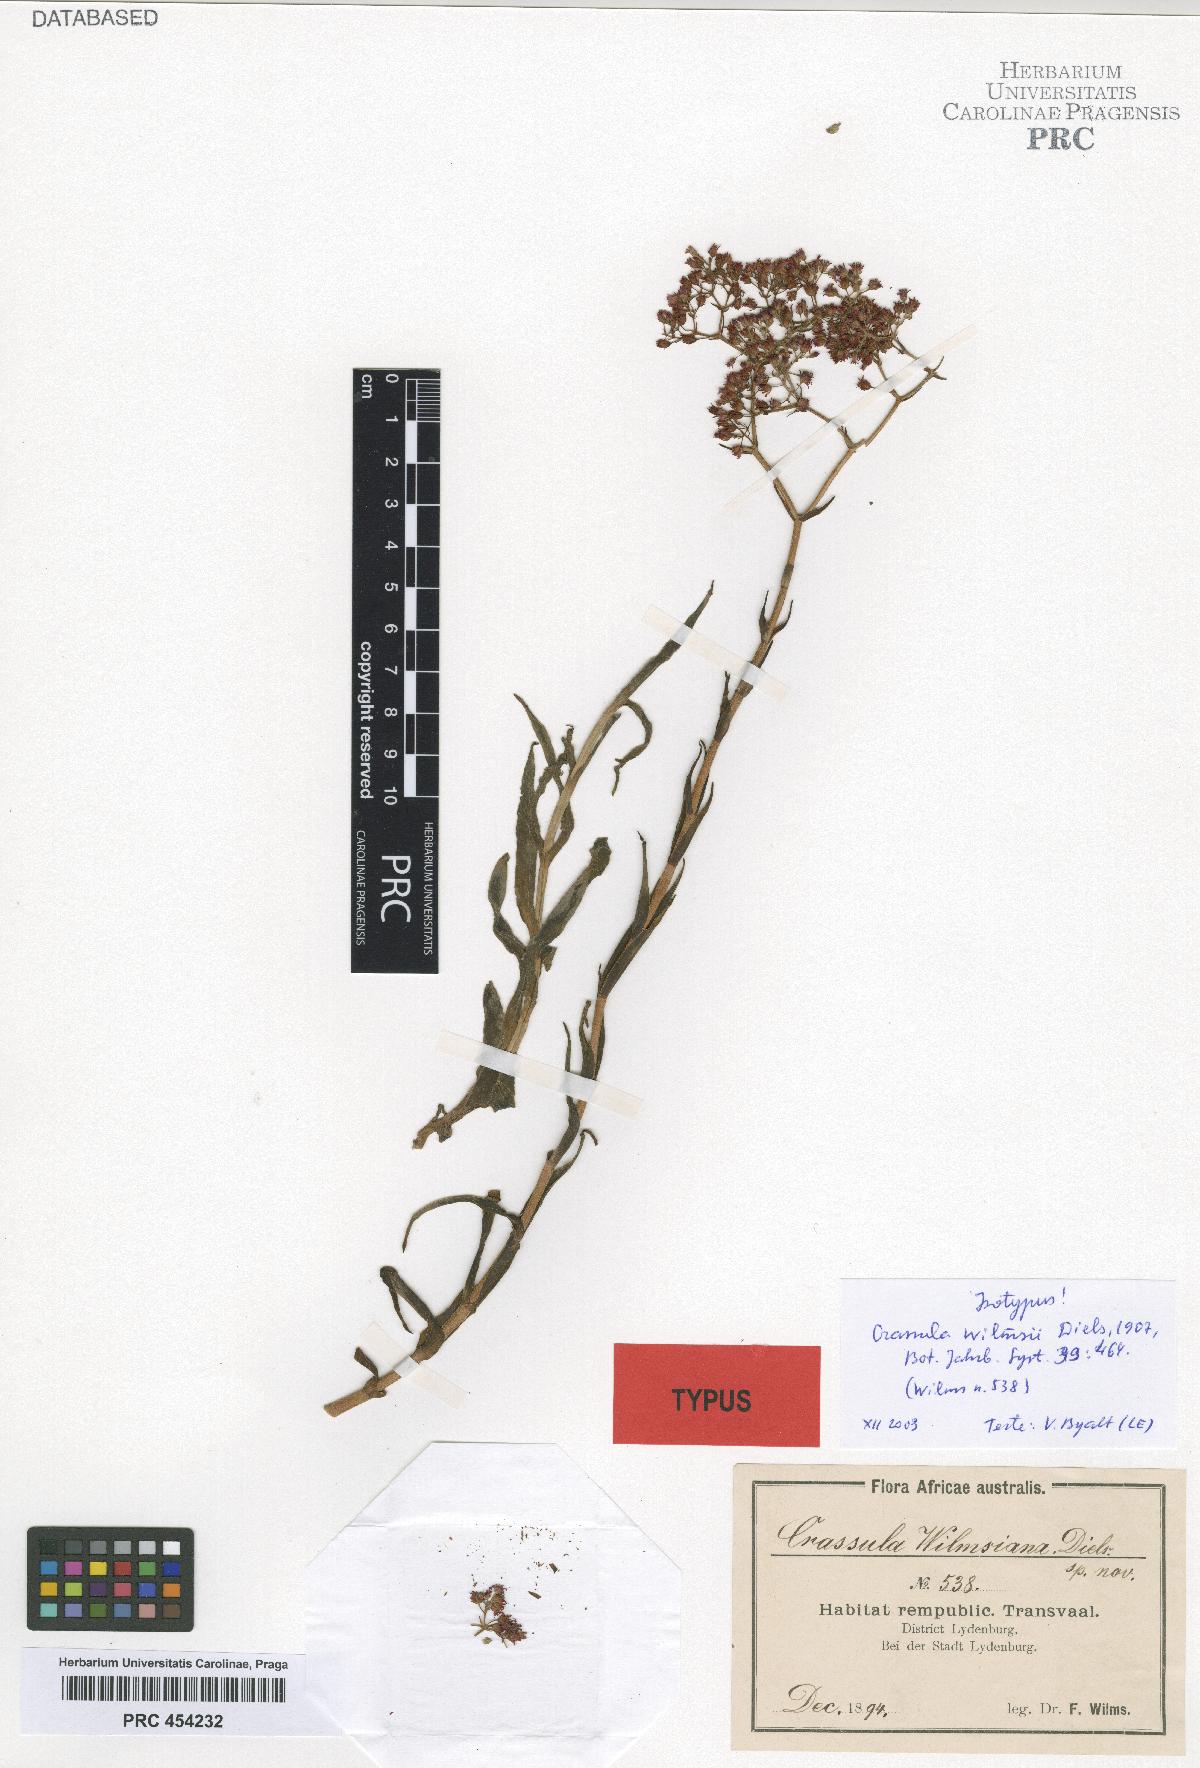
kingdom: Plantae
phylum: Tracheophyta
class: Magnoliopsida
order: Saxifragales
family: Crassulaceae
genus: Crassula
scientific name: Crassula alba
